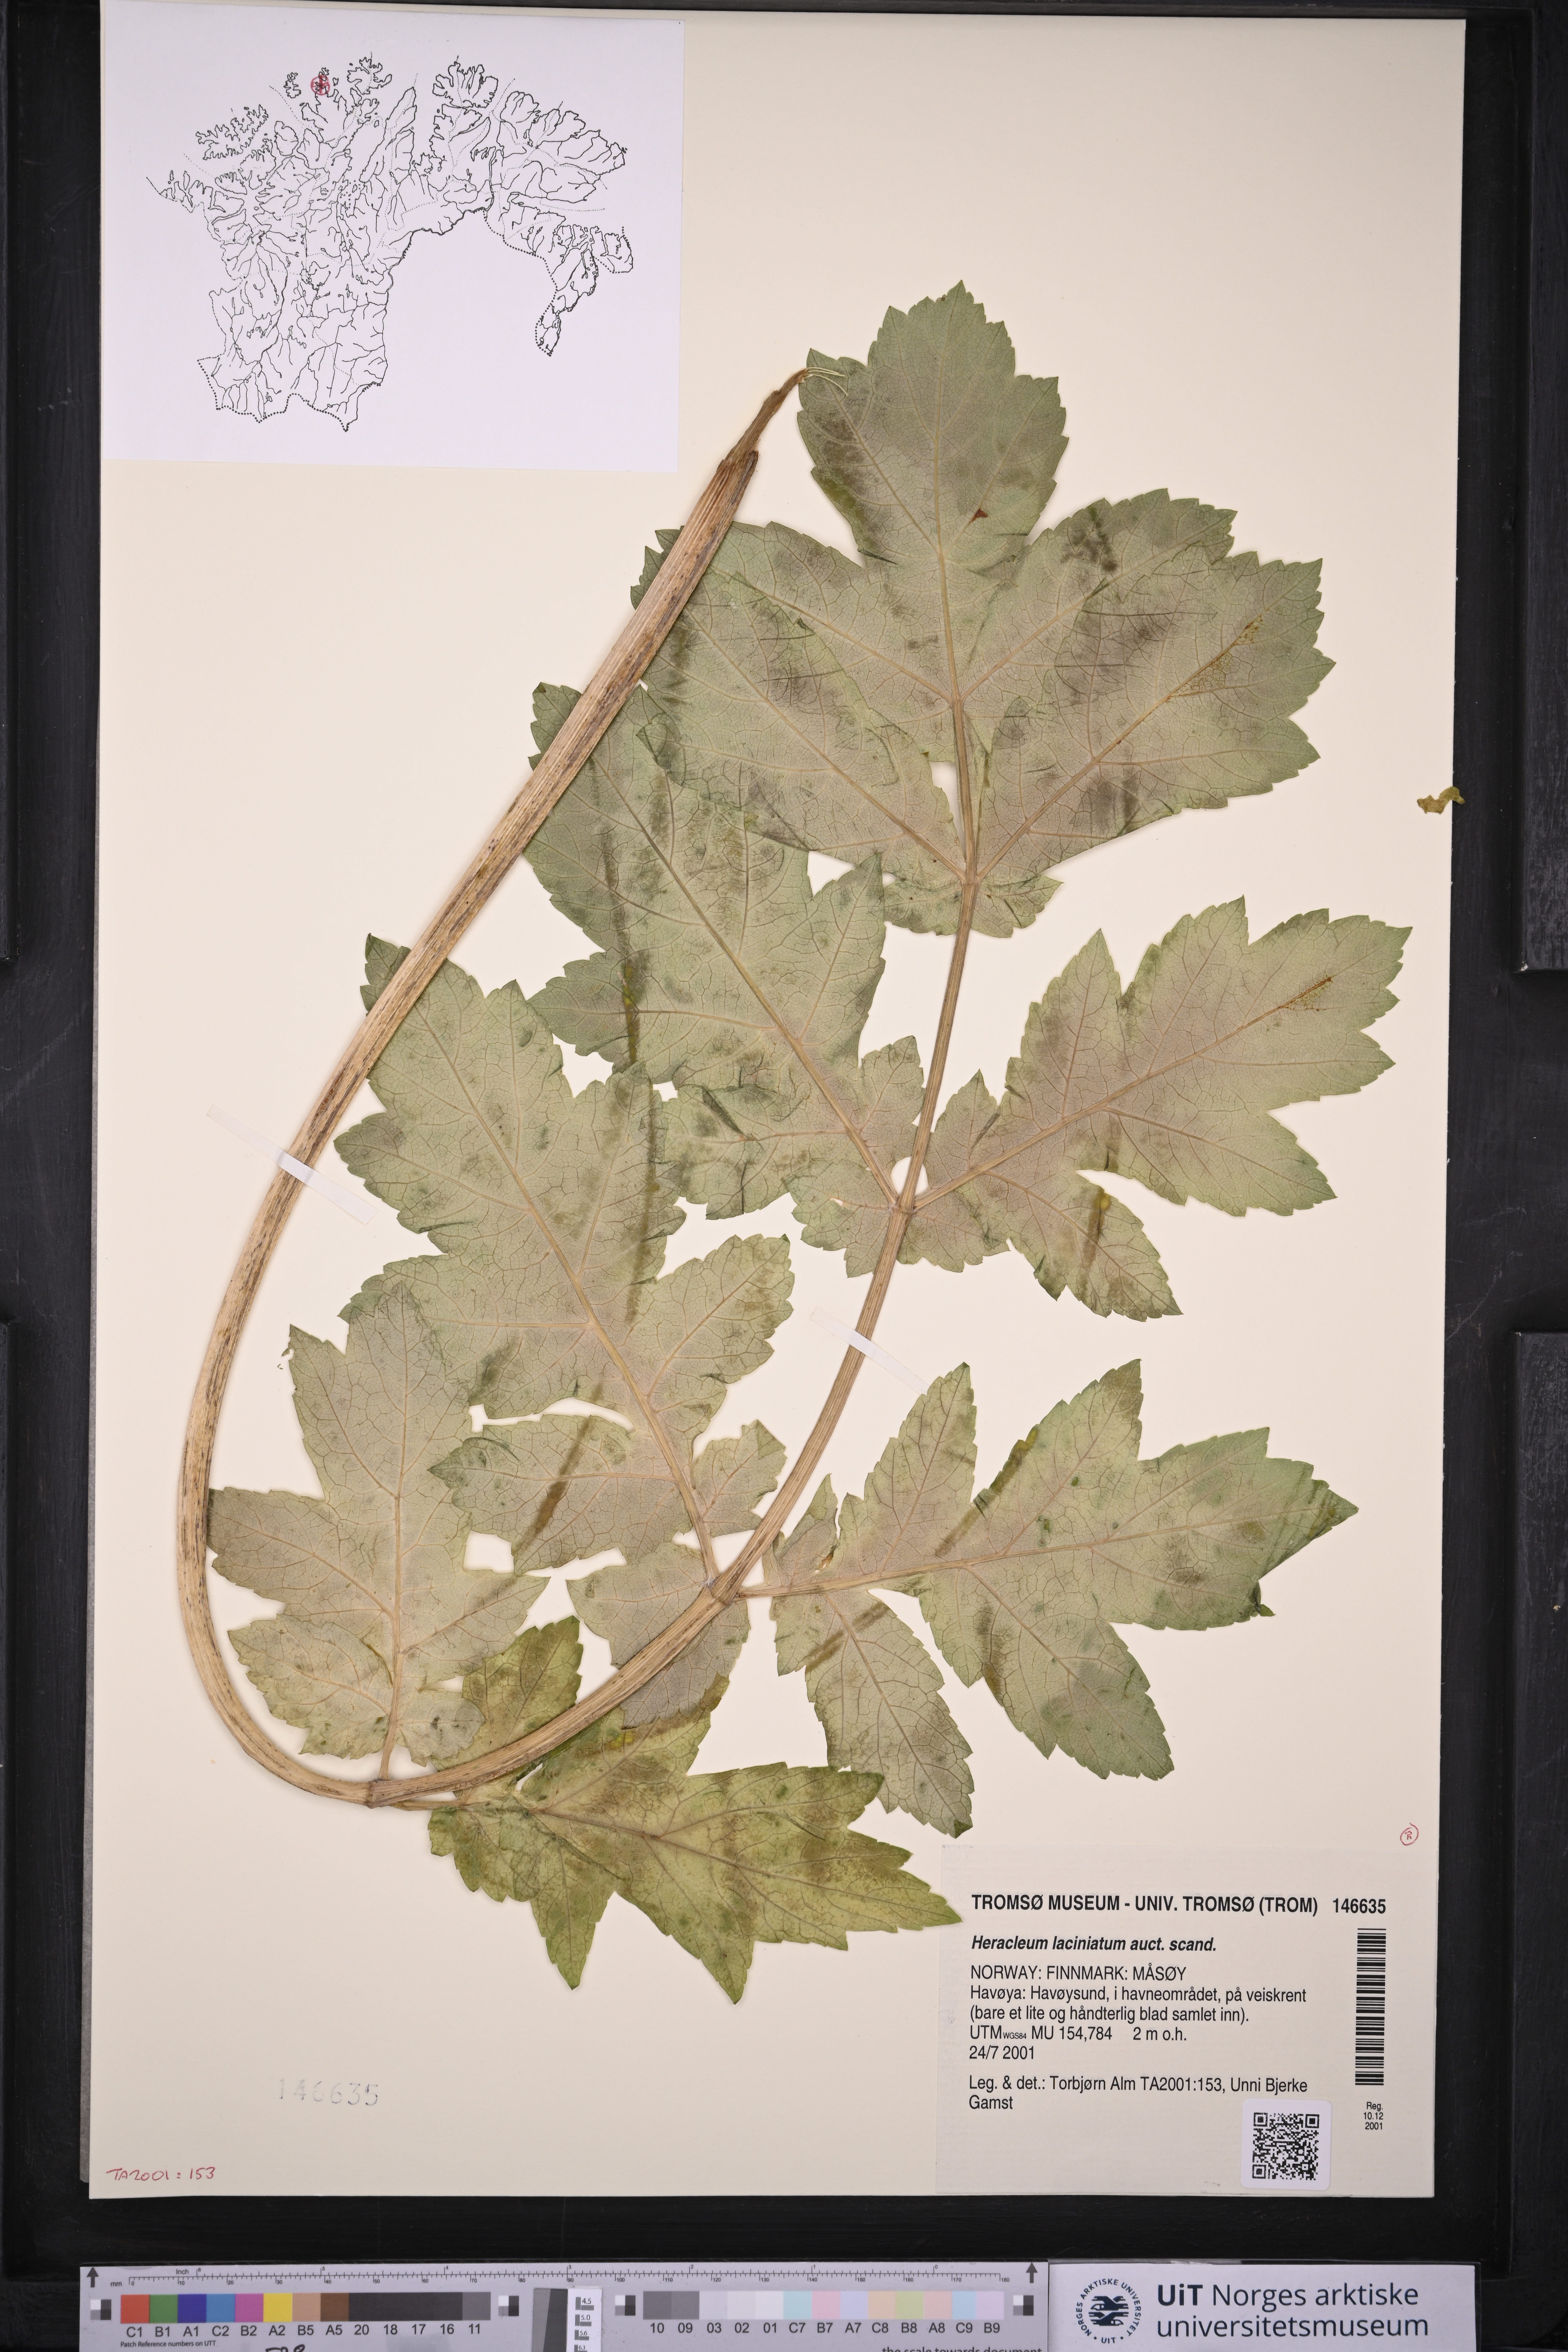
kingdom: Plantae
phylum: Tracheophyta
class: Magnoliopsida
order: Apiales
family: Apiaceae
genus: Heracleum
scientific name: Heracleum persicum
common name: Persian hogweed
